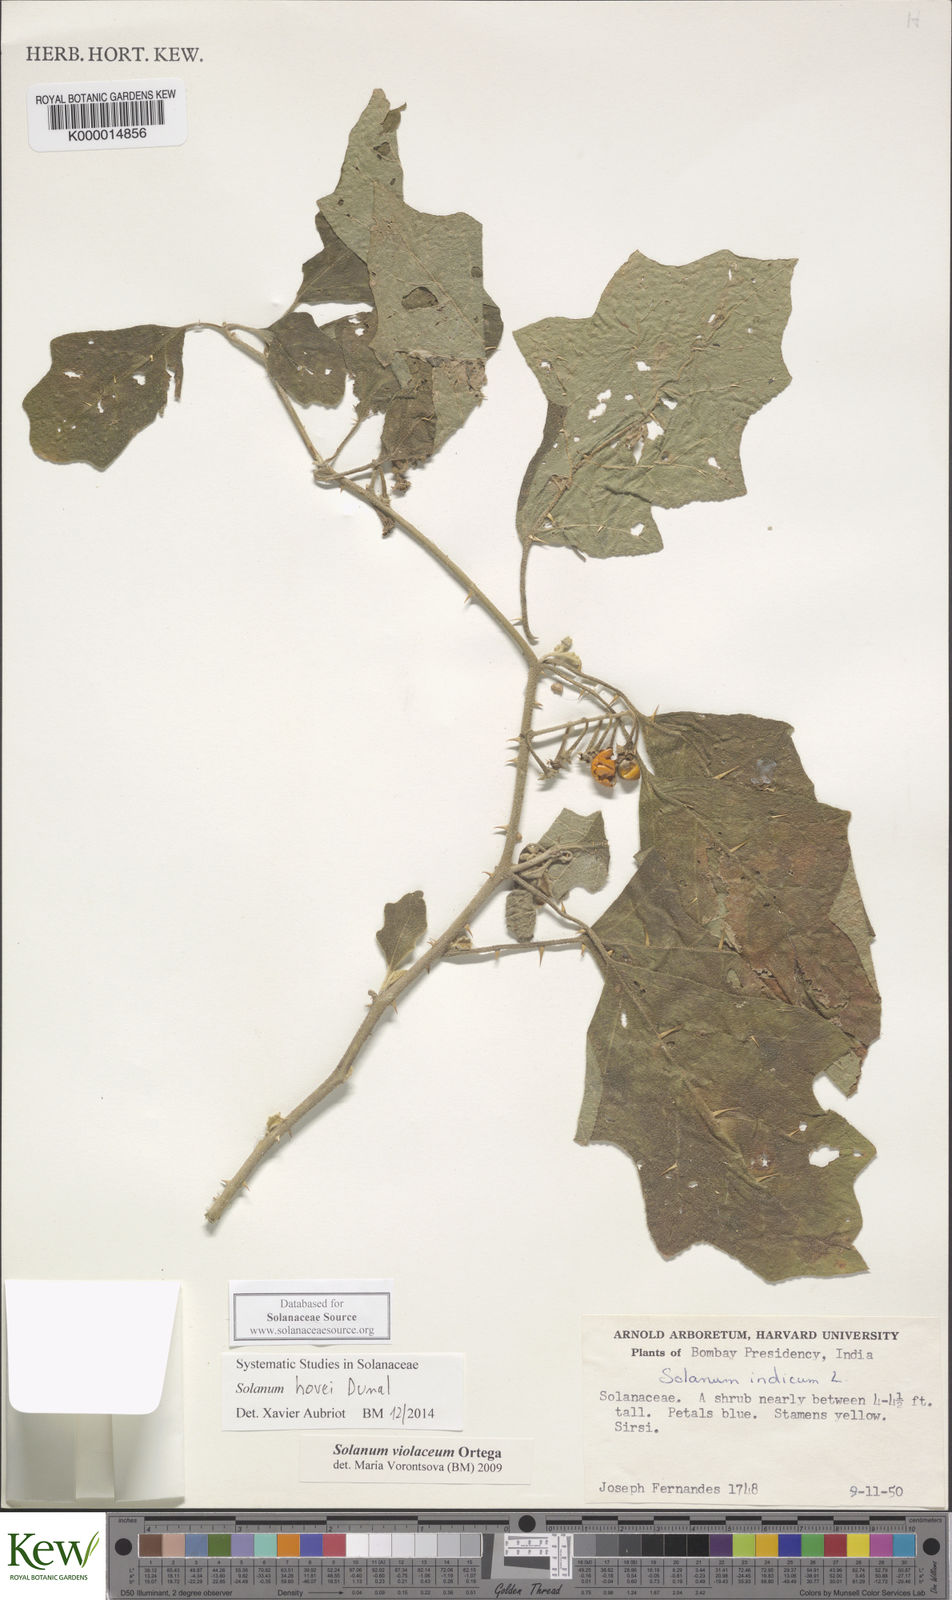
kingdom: Plantae
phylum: Tracheophyta
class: Magnoliopsida
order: Solanales
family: Solanaceae
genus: Solanum
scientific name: Solanum hovei
